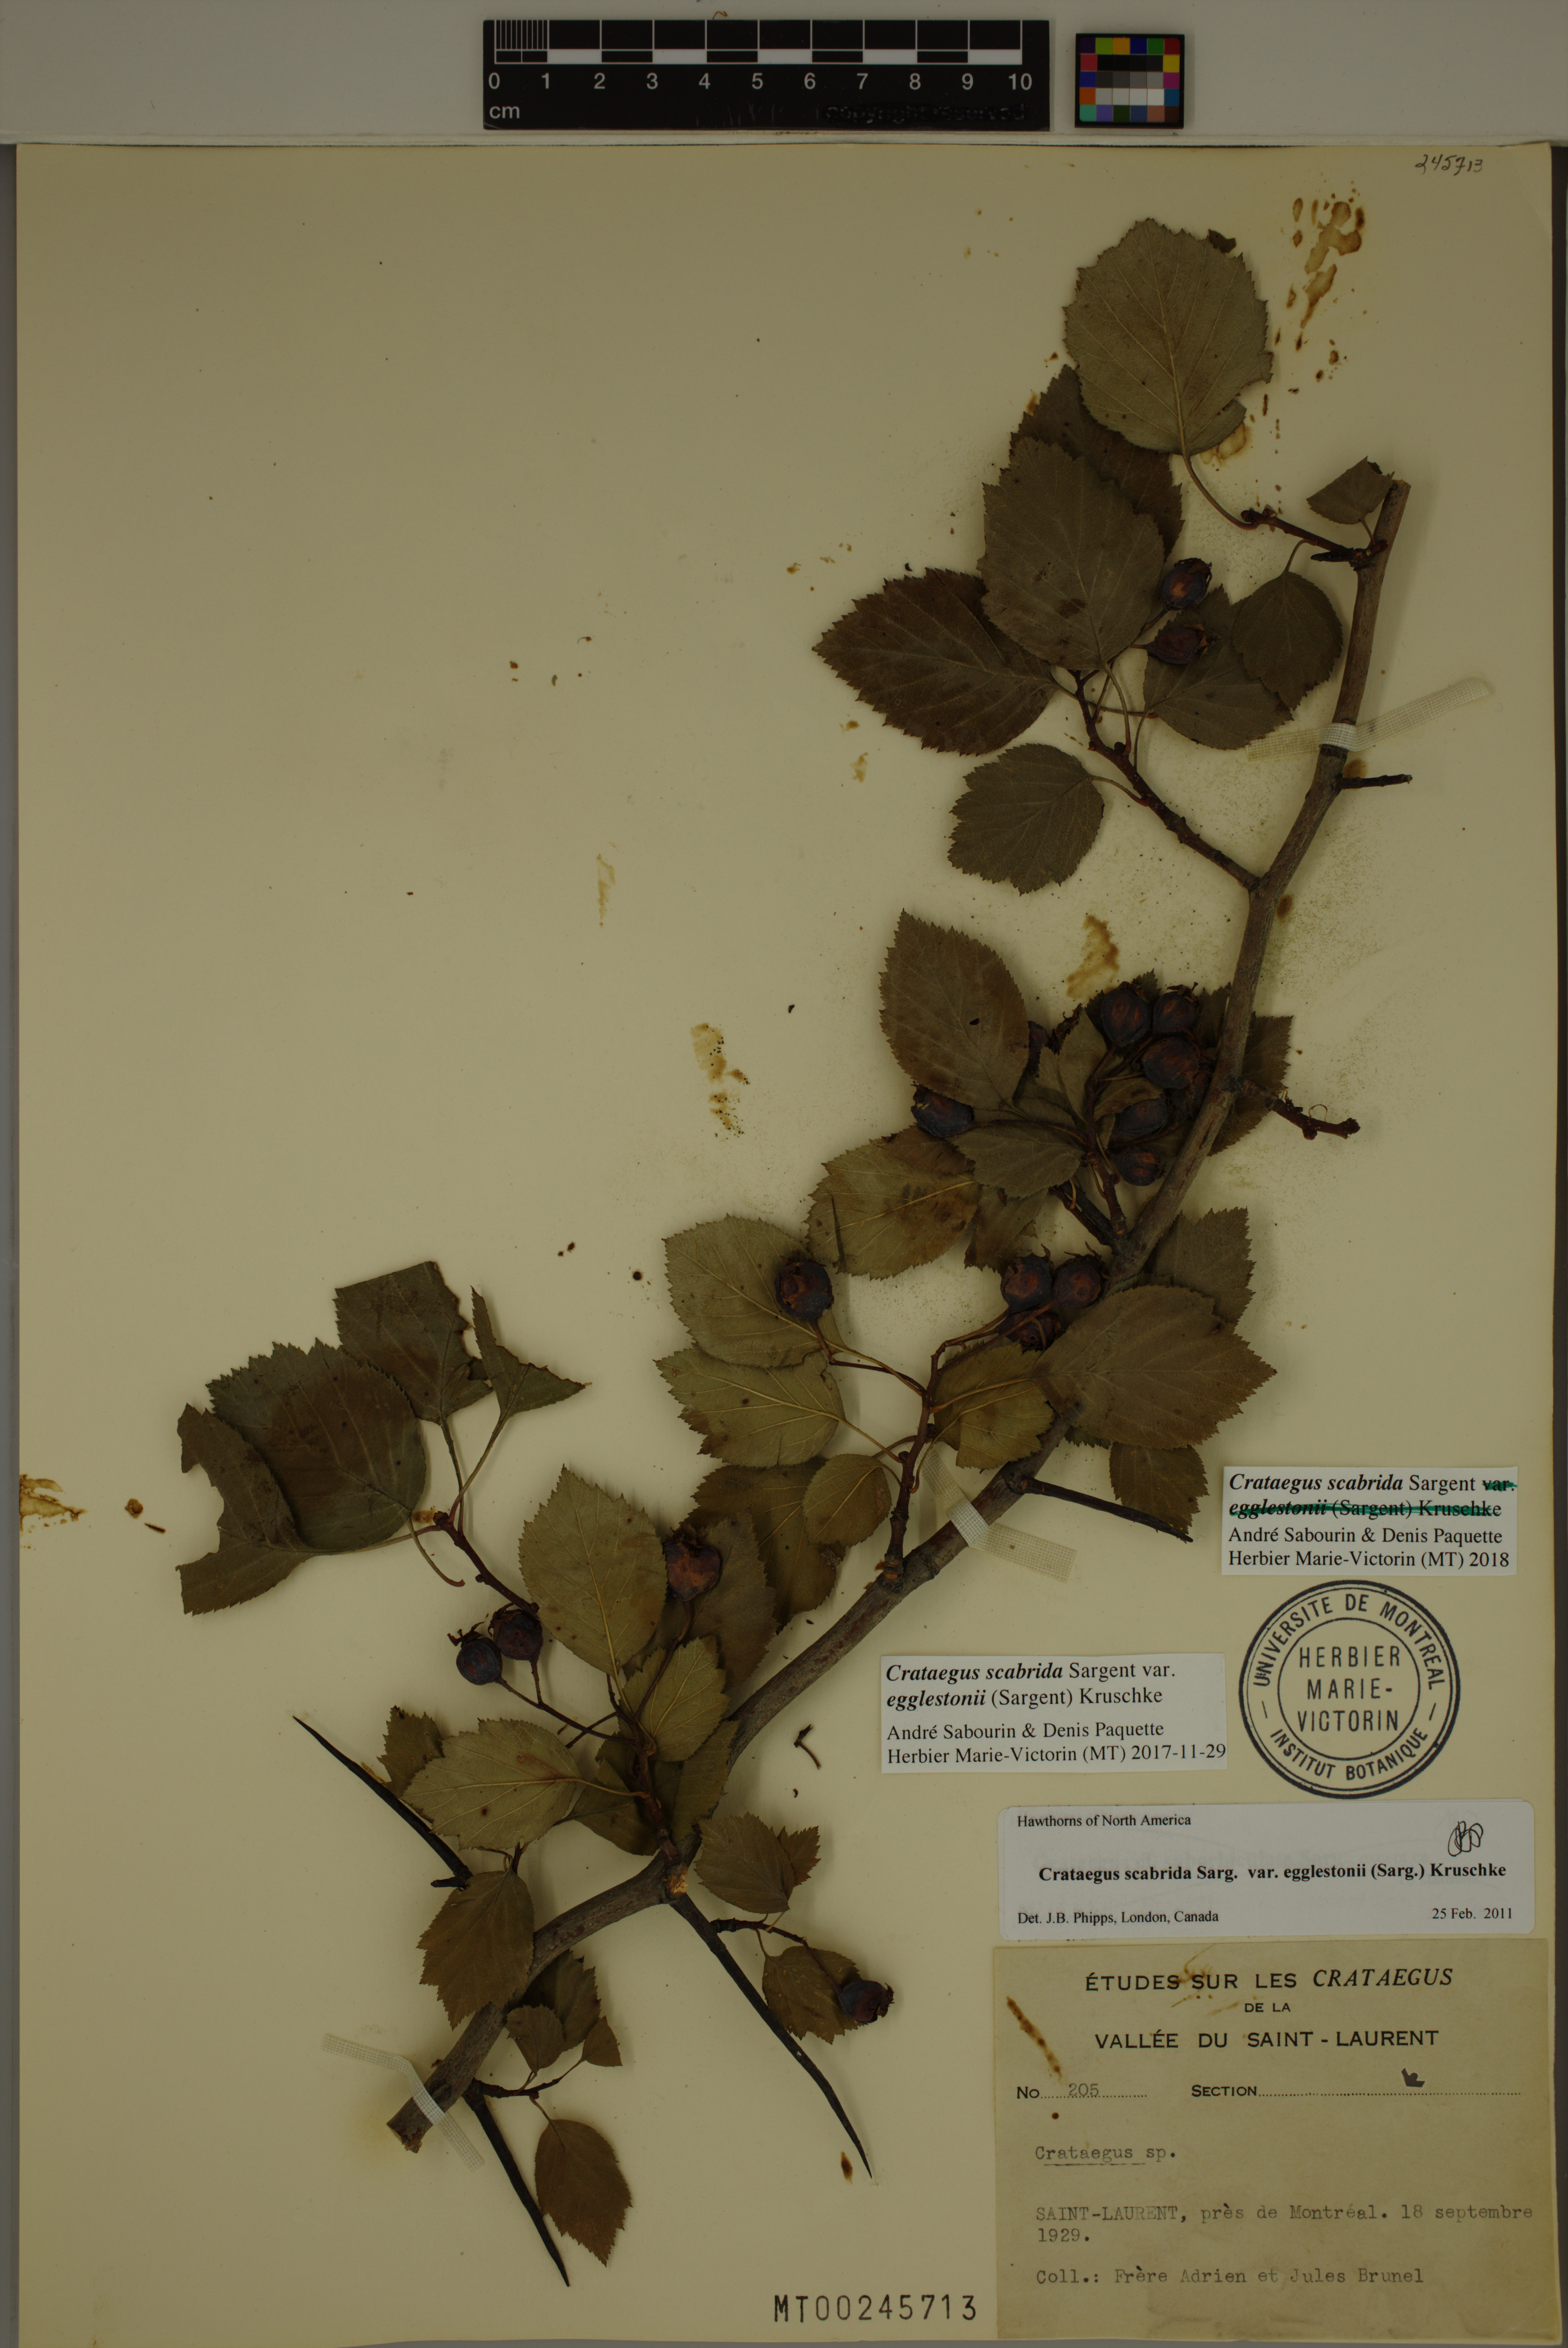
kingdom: Plantae
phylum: Tracheophyta
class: Magnoliopsida
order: Rosales
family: Rosaceae
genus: Crataegus
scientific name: Crataegus scabrida
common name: Rough hawthorn
